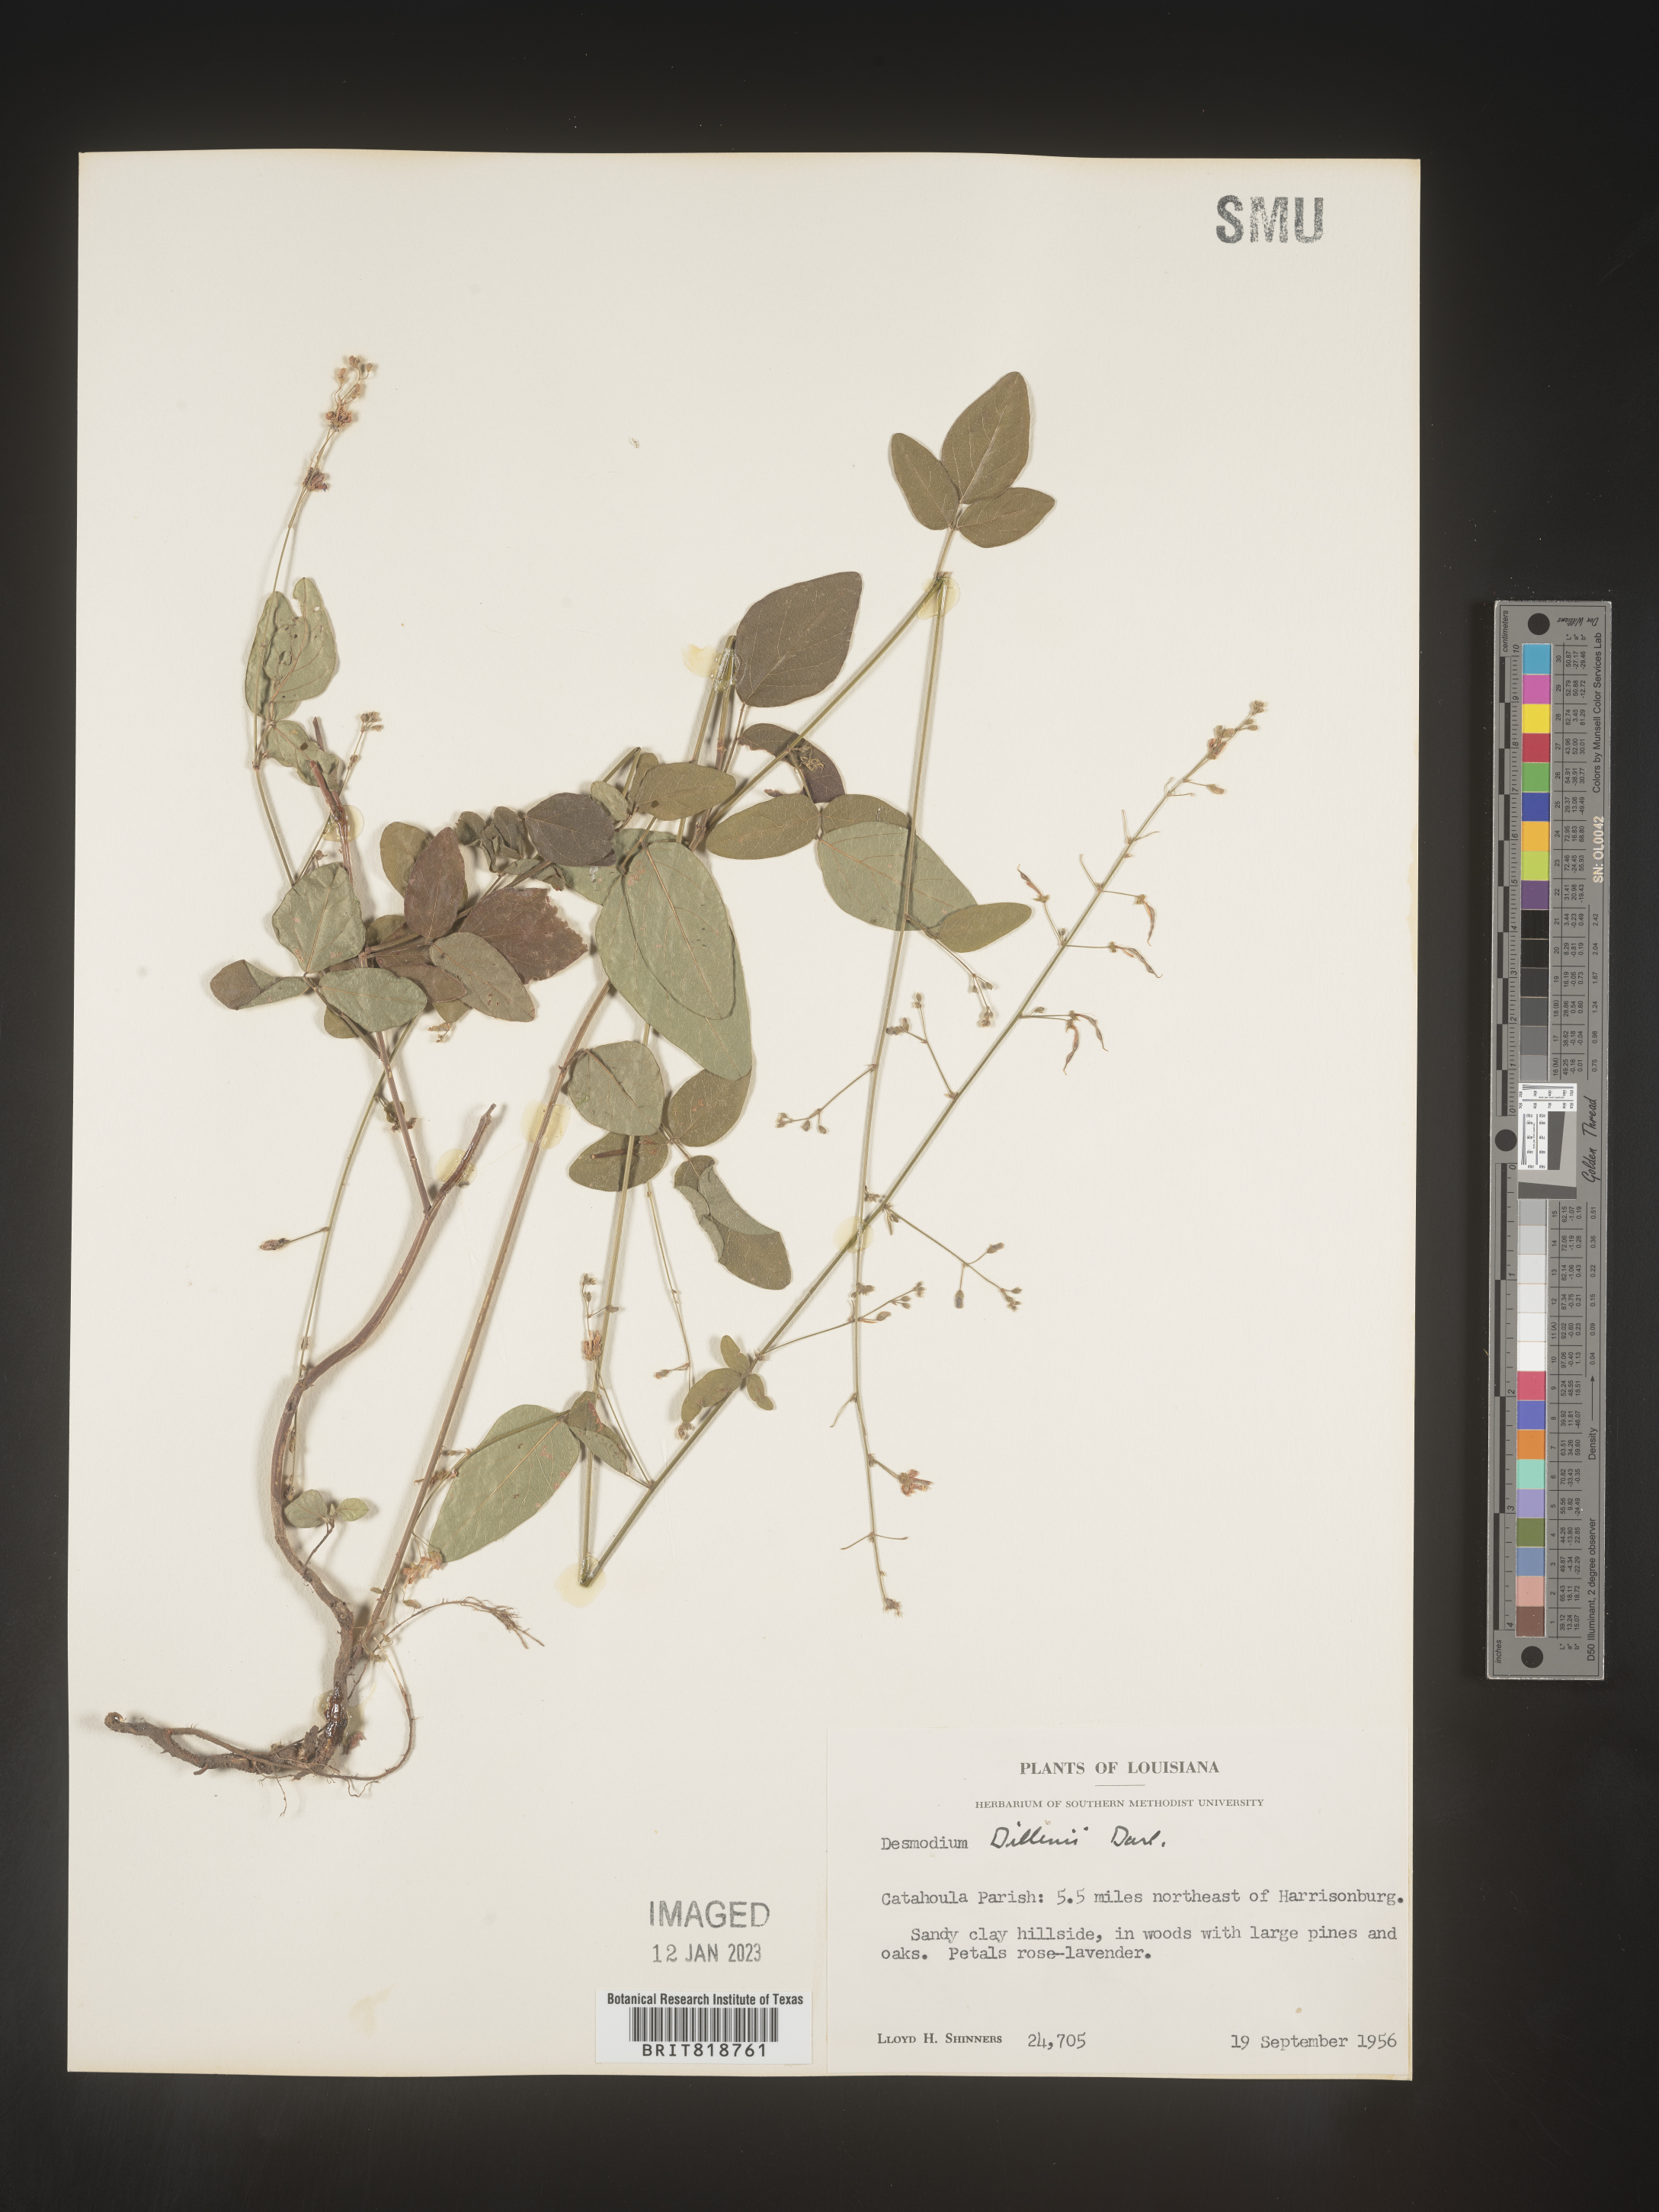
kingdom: Plantae
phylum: Tracheophyta
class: Magnoliopsida
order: Fabales
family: Fabaceae
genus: Desmodium
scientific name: Desmodium perplexum
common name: Perplexed tick trefoil
